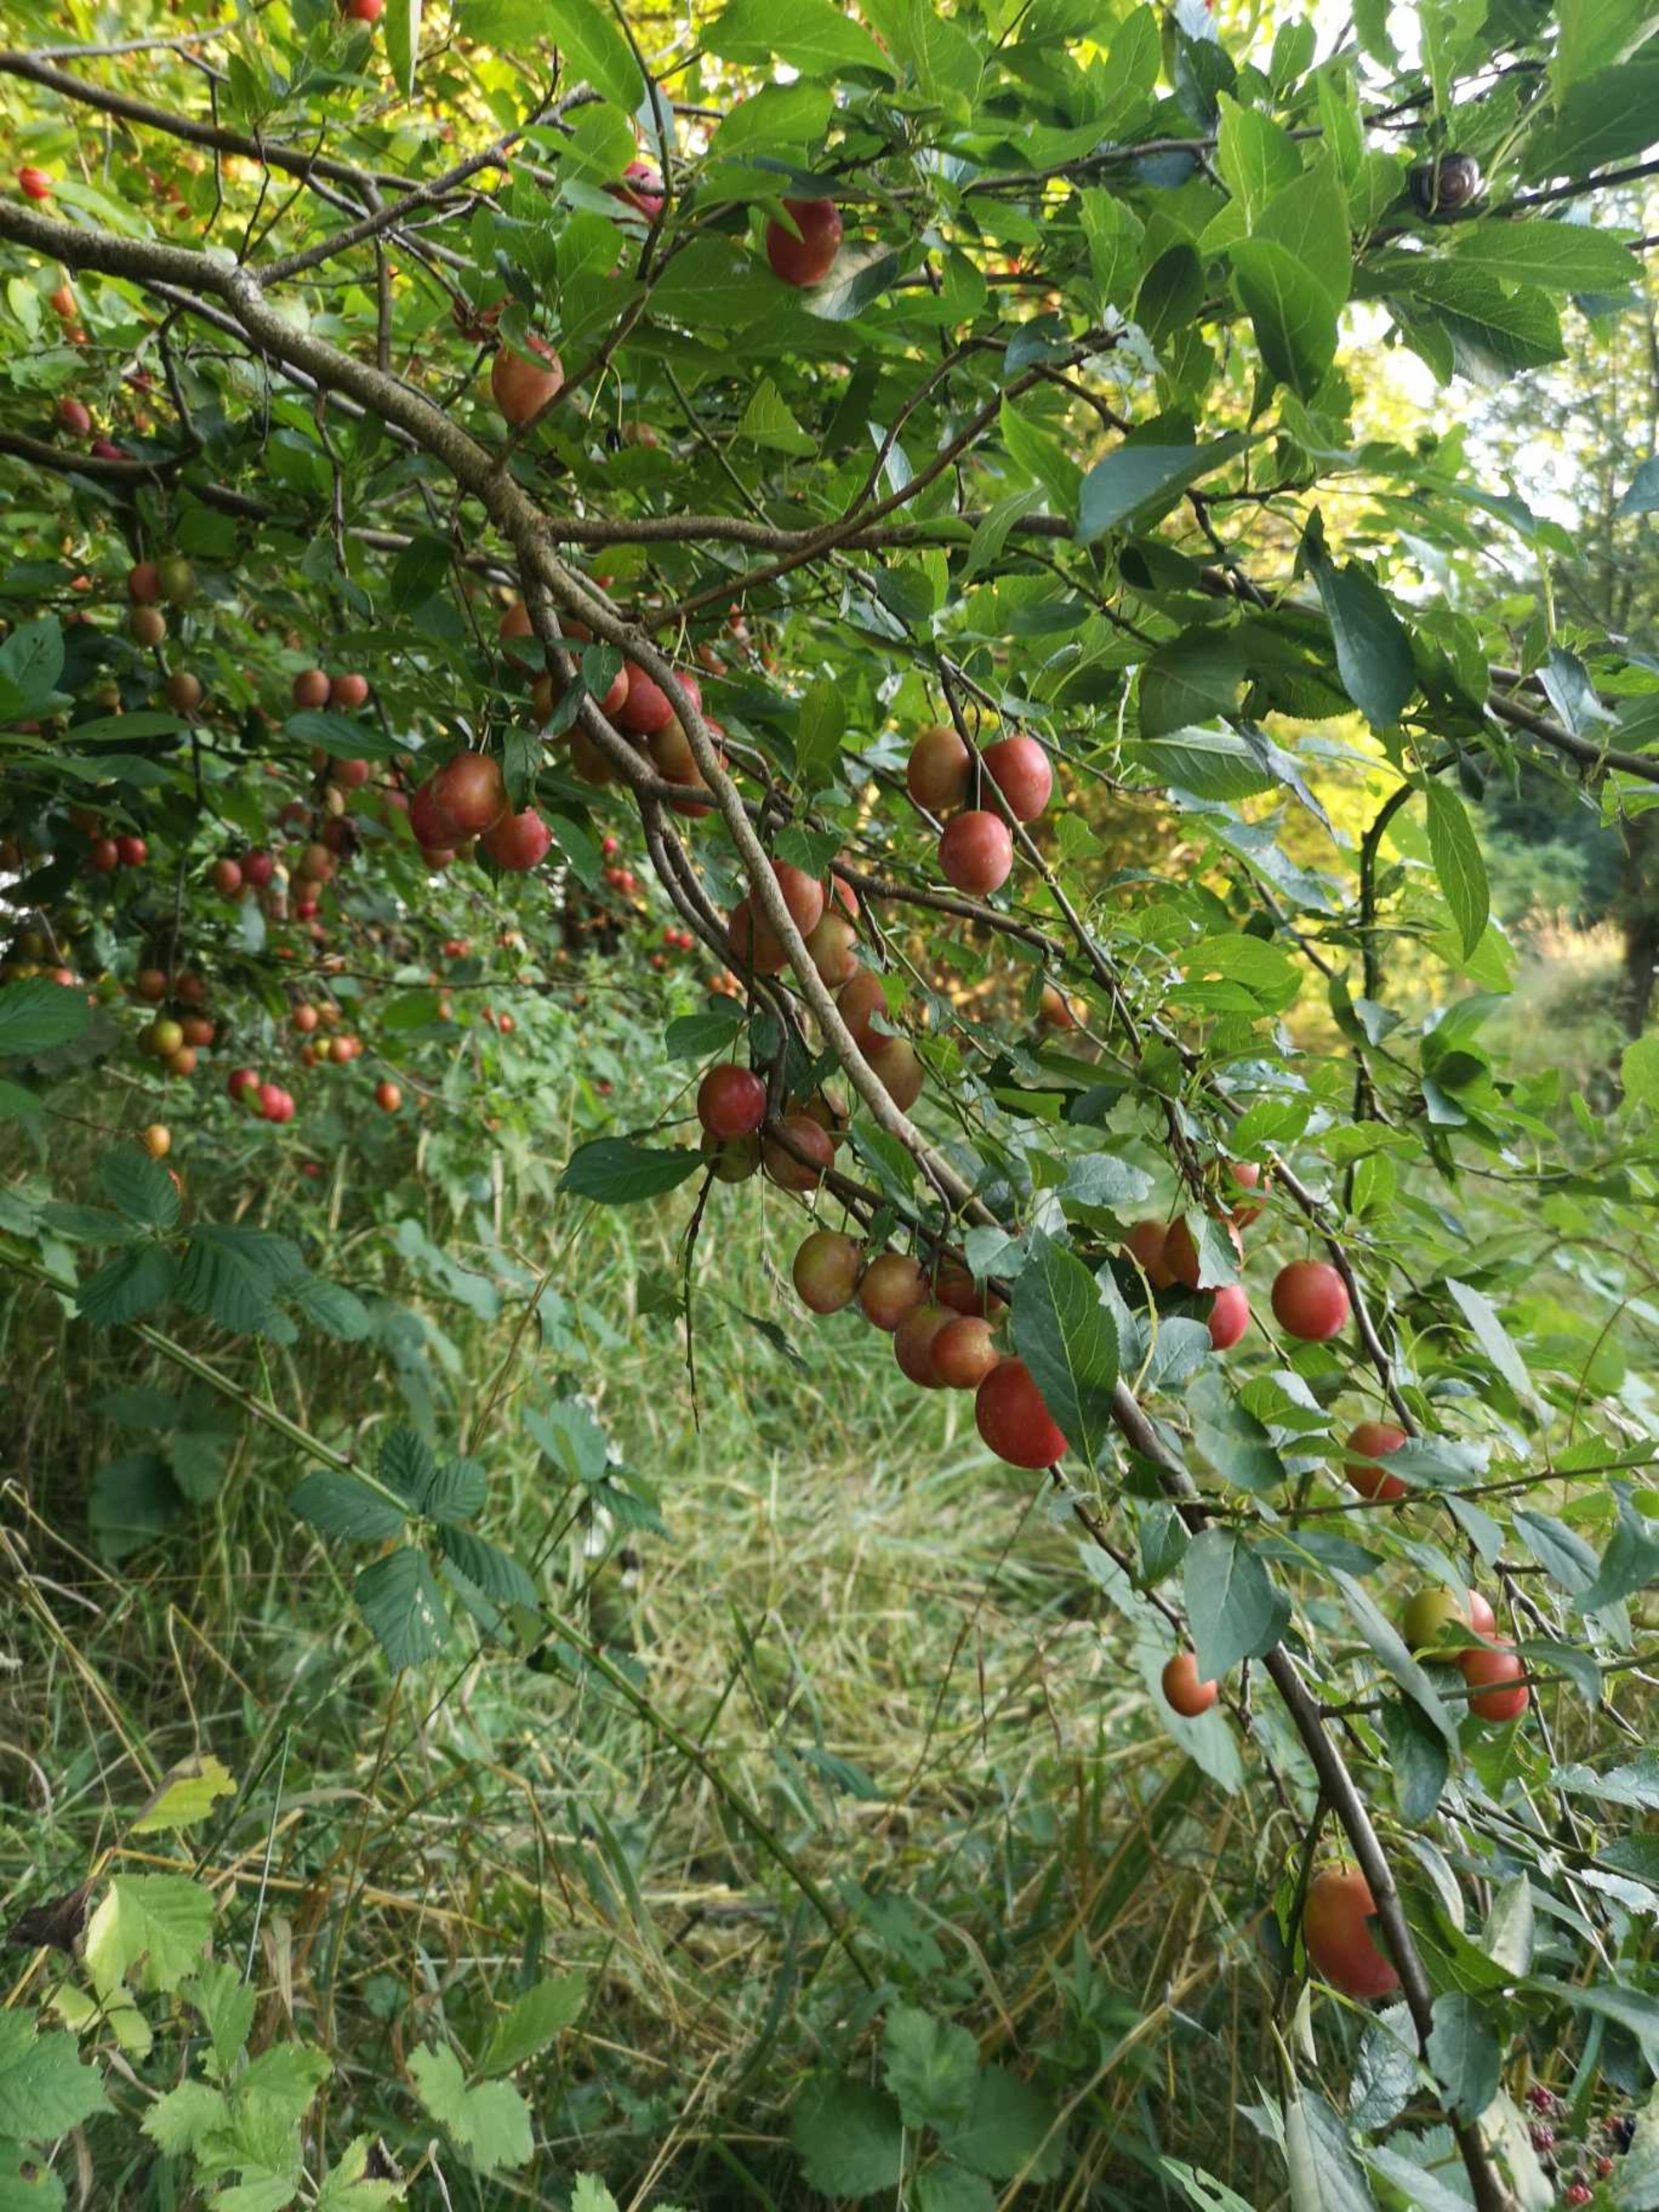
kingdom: Plantae
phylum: Tracheophyta
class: Magnoliopsida
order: Rosales
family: Rosaceae
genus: Prunus
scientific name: Prunus cerasifera
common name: Mirabel
